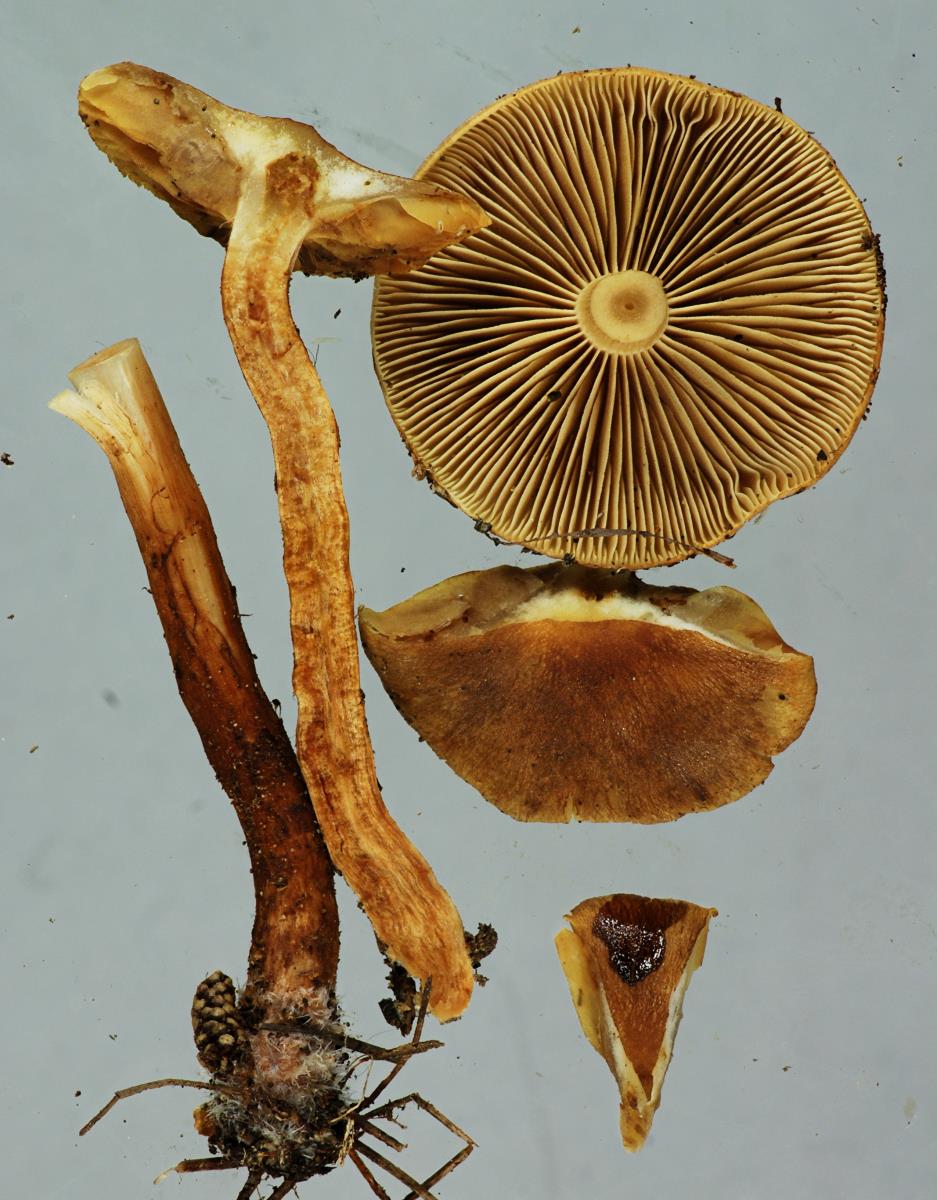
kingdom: Fungi
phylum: Basidiomycota
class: Agaricomycetes
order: Agaricales
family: Strophariaceae
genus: Pholiota
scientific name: Pholiota multicingulata
